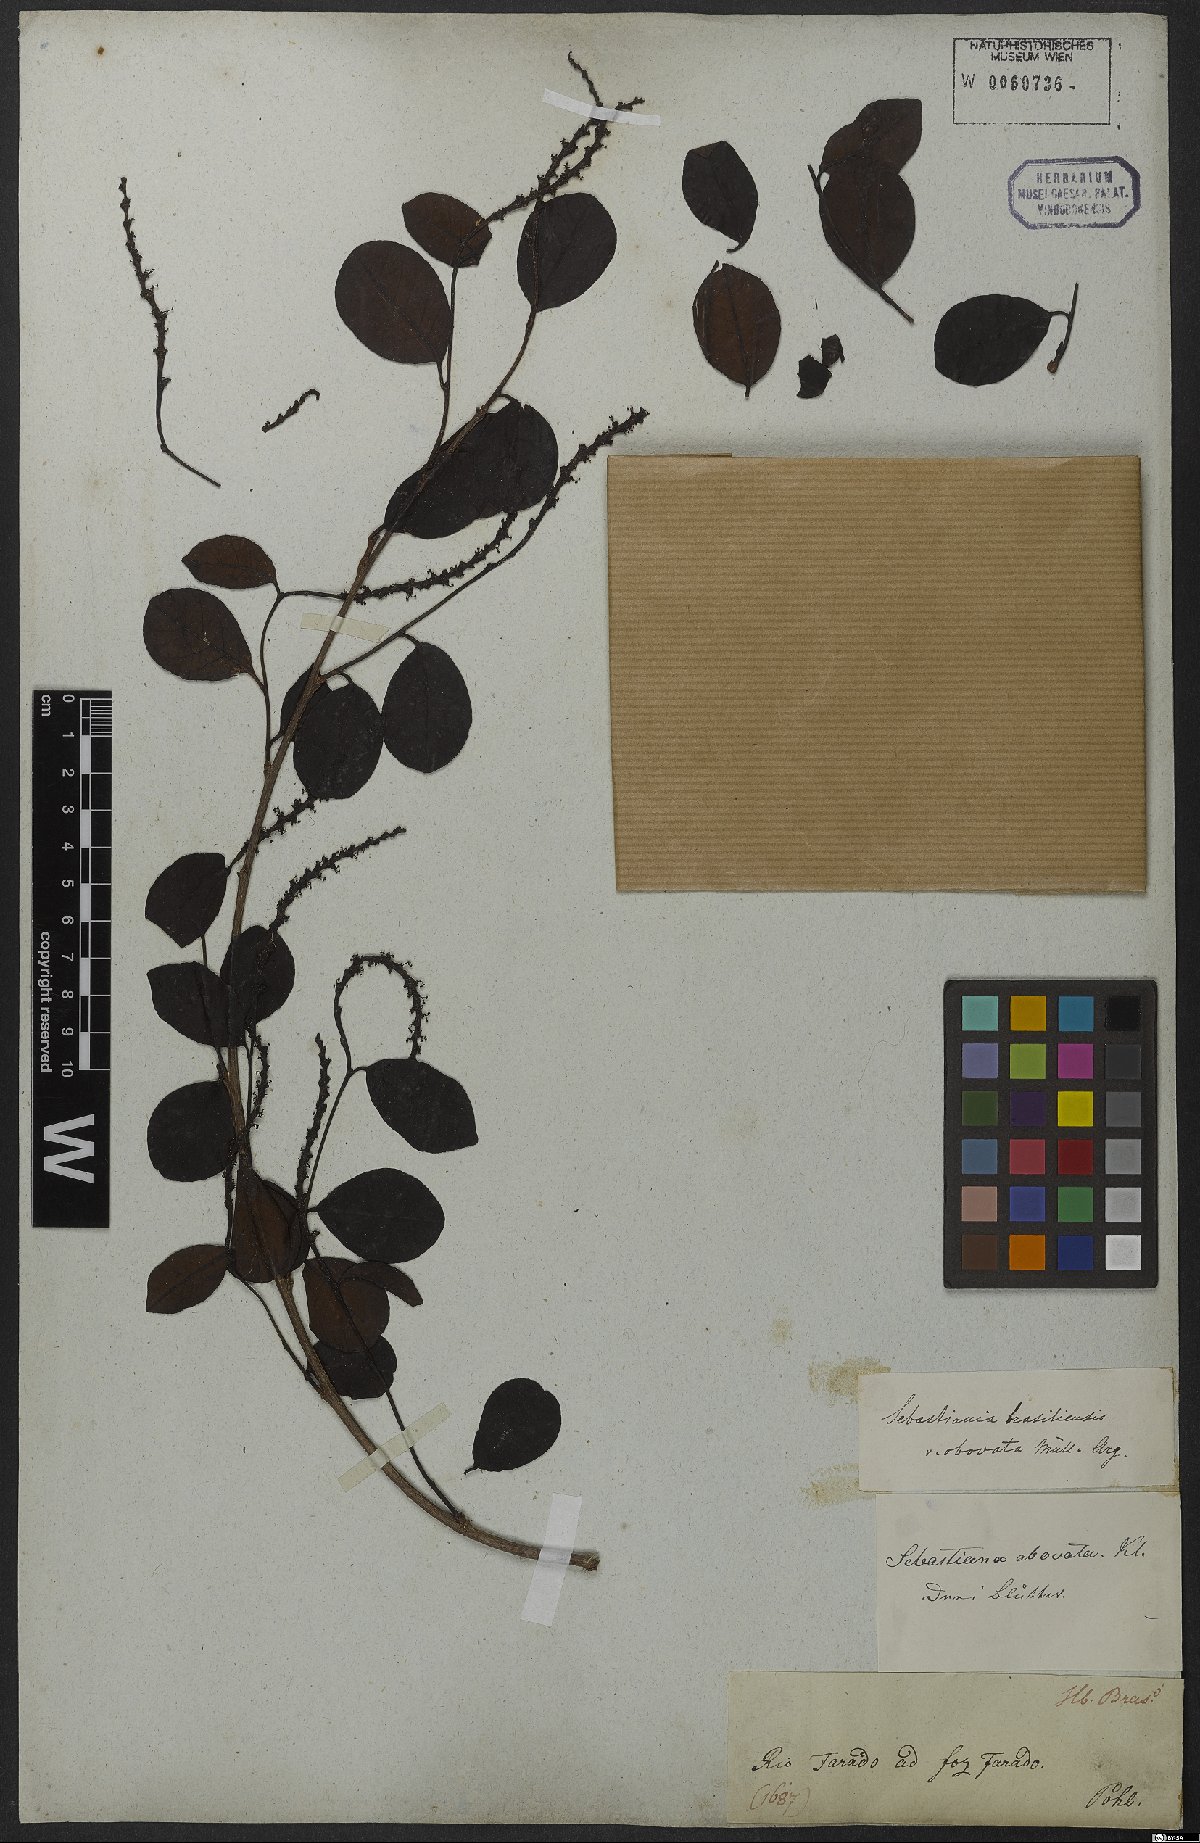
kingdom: Plantae
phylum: Tracheophyta
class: Magnoliopsida
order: Malpighiales
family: Euphorbiaceae
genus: Sebastiania
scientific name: Sebastiania ramosissima
